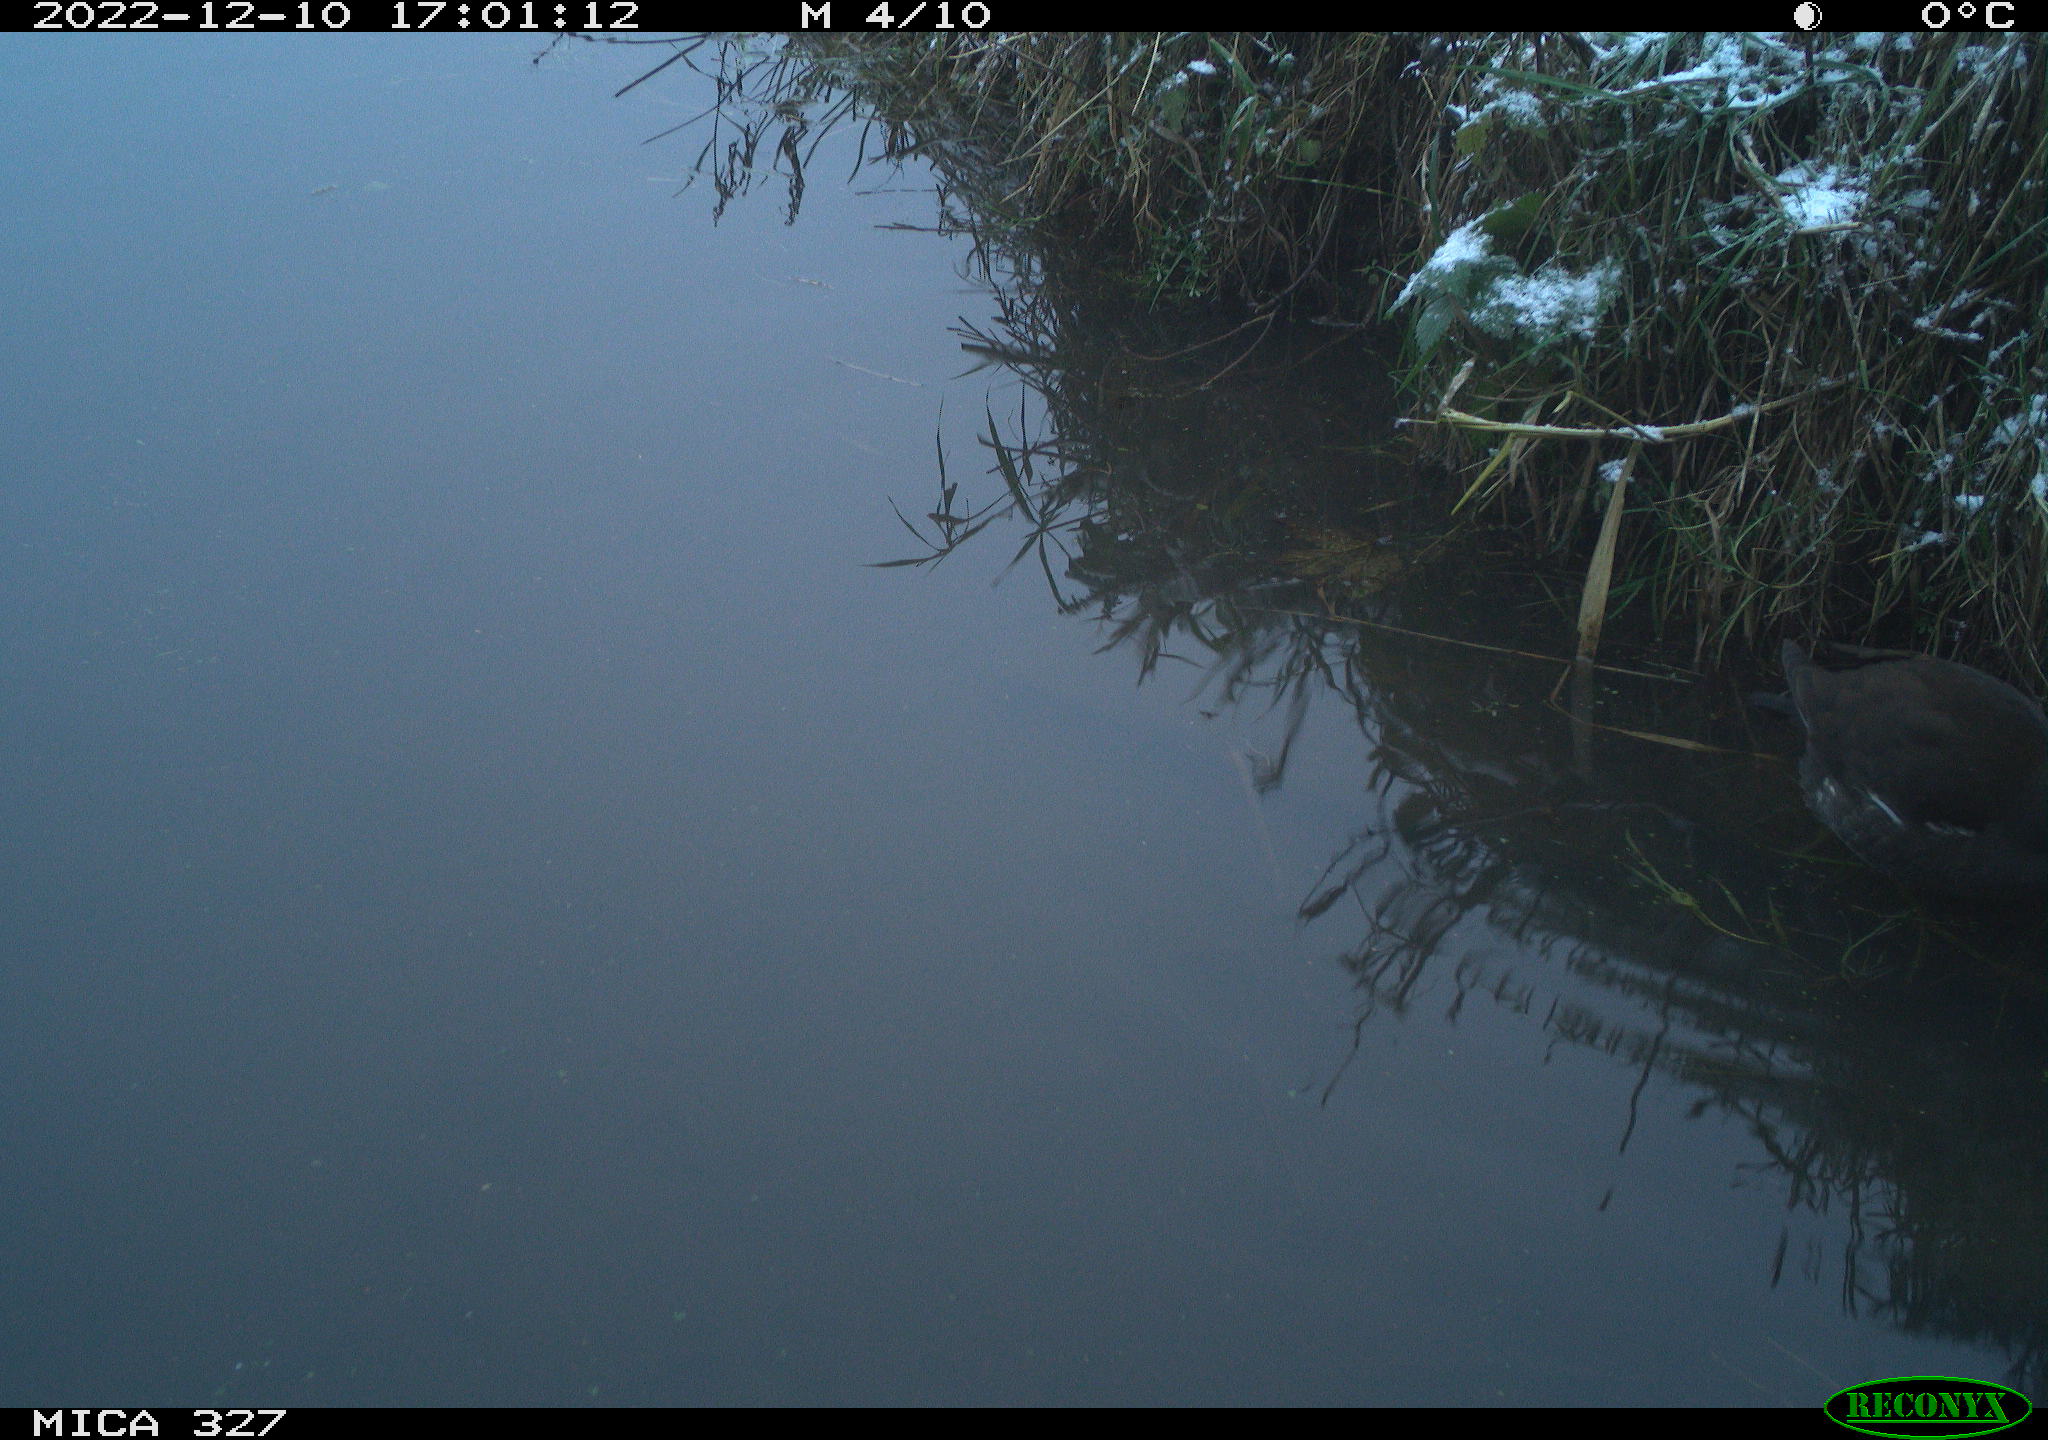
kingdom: Animalia
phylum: Chordata
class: Aves
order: Gruiformes
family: Rallidae
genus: Gallinula
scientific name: Gallinula chloropus
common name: Common moorhen
